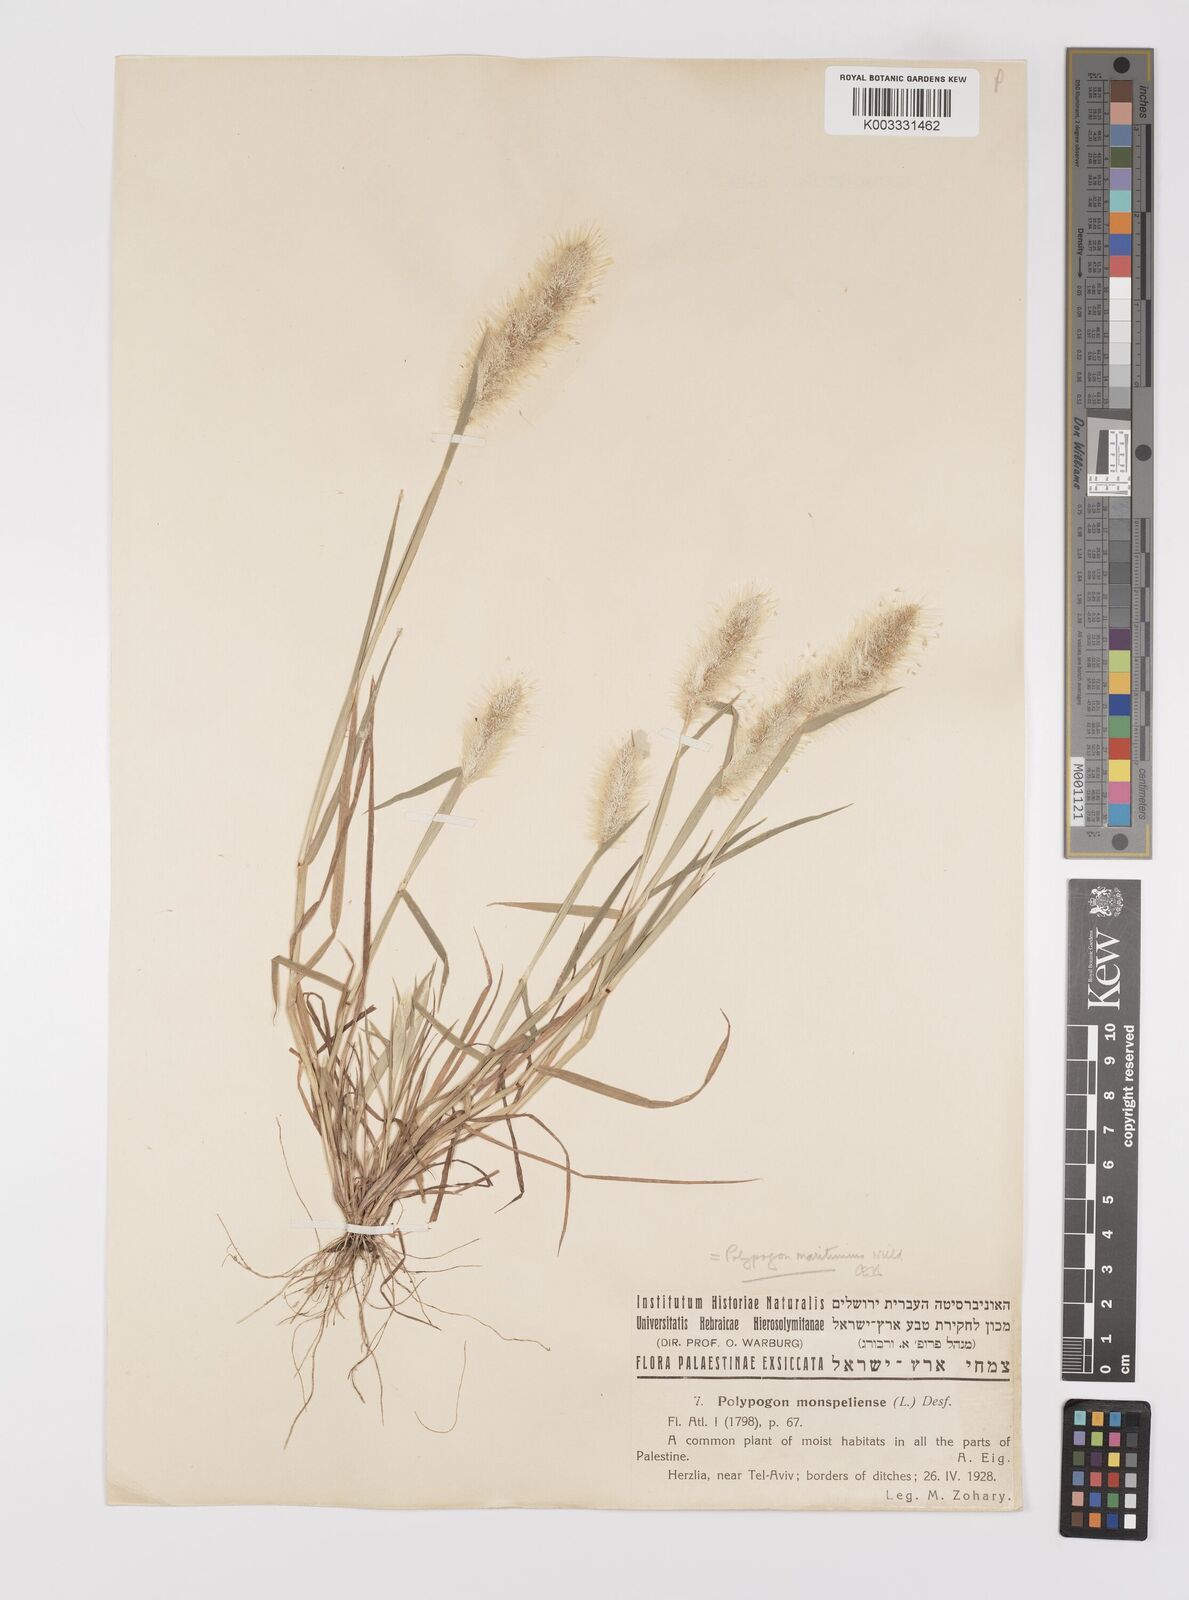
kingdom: Plantae
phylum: Tracheophyta
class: Liliopsida
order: Poales
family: Poaceae
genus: Polypogon
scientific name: Polypogon maritimus
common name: Mediterranean rabbitsfoot grass
